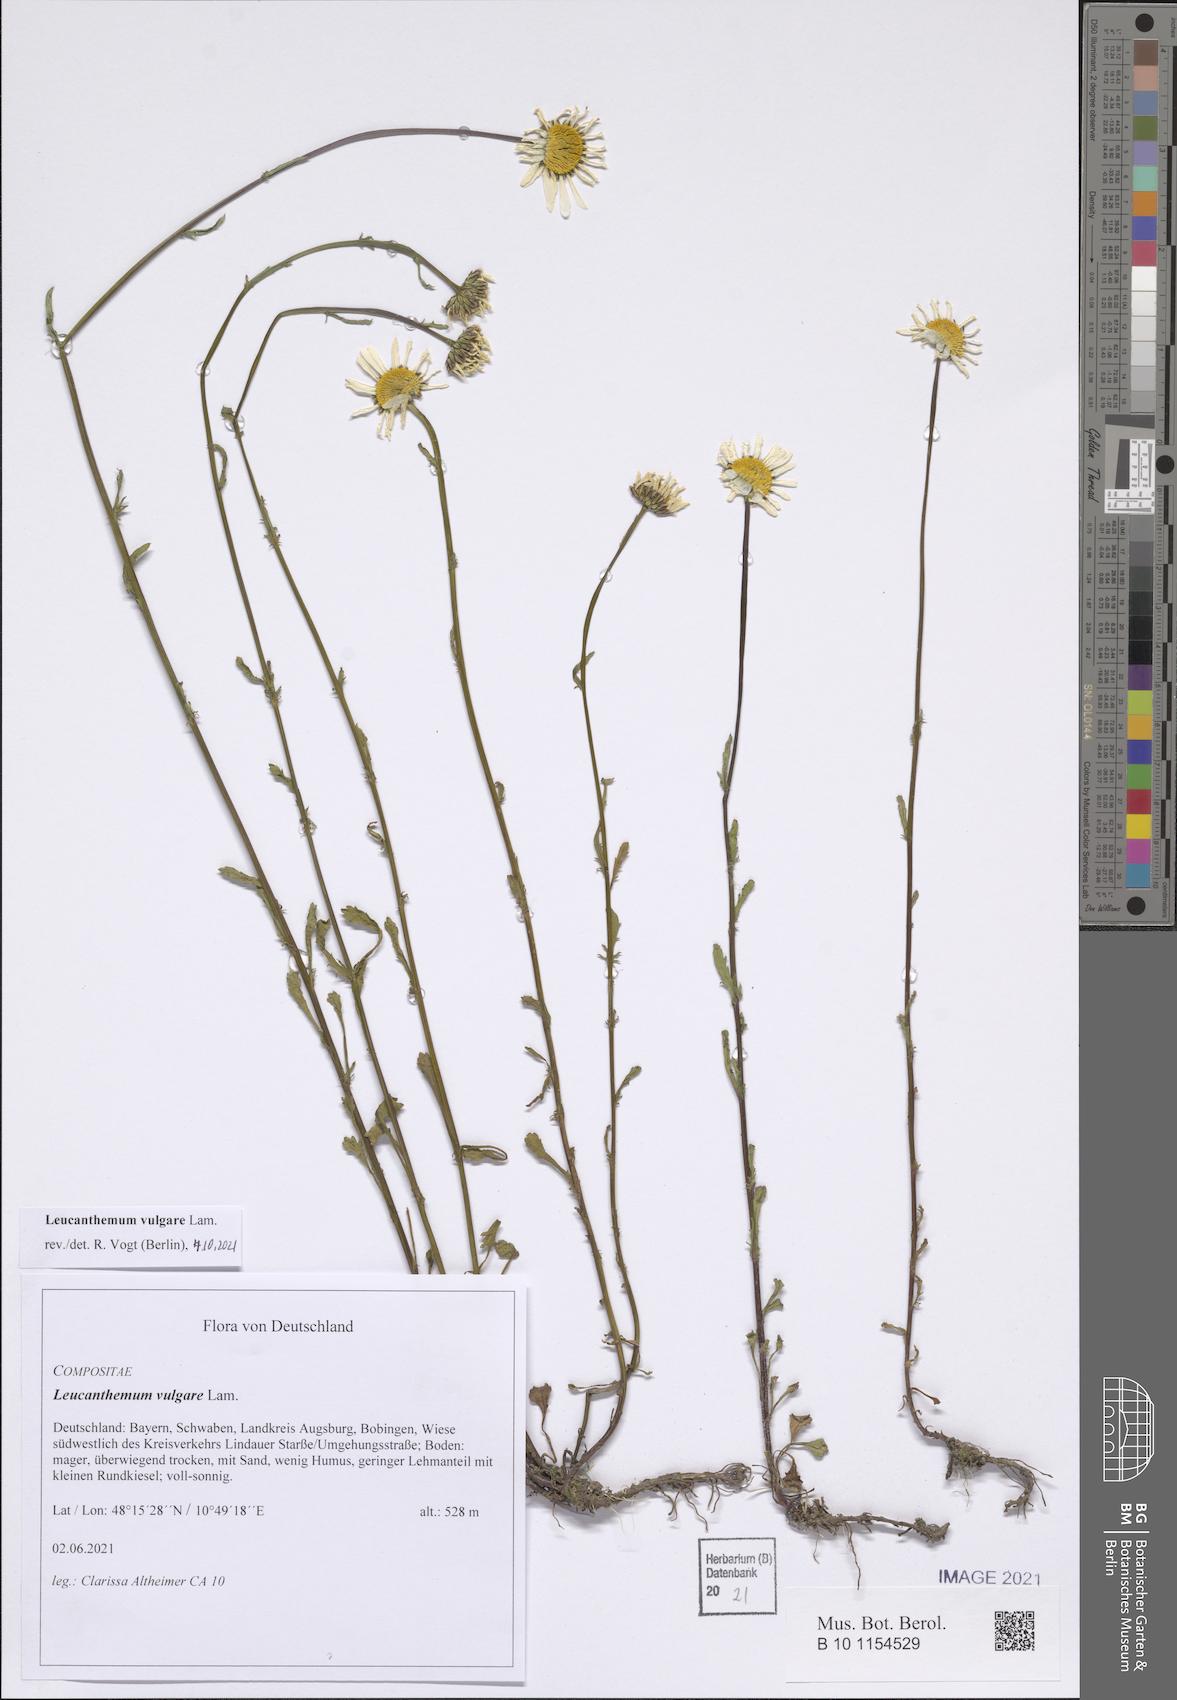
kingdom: Plantae
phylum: Tracheophyta
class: Magnoliopsida
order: Asterales
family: Asteraceae
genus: Leucanthemum
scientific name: Leucanthemum vulgare
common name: Oxeye daisy
